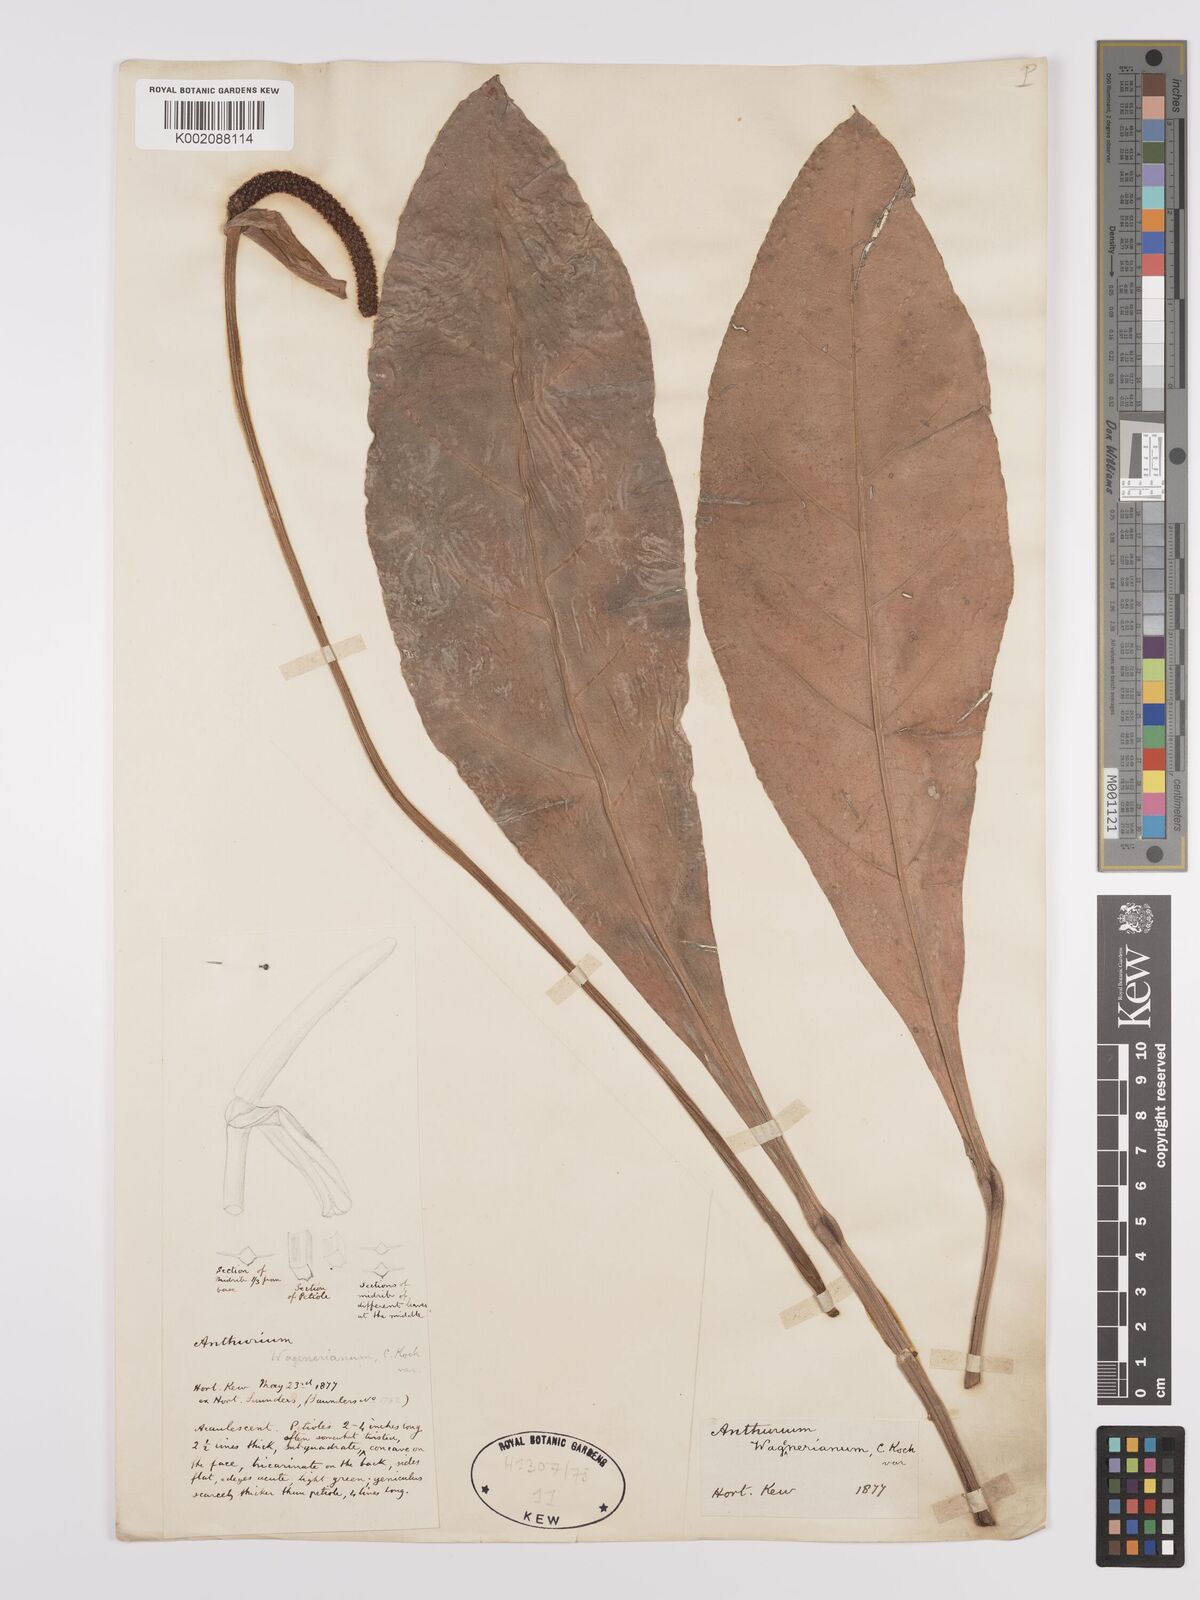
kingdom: Plantae
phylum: Tracheophyta
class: Liliopsida
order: Alismatales
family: Araceae
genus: Anthurium
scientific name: Anthurium wagenerianum
